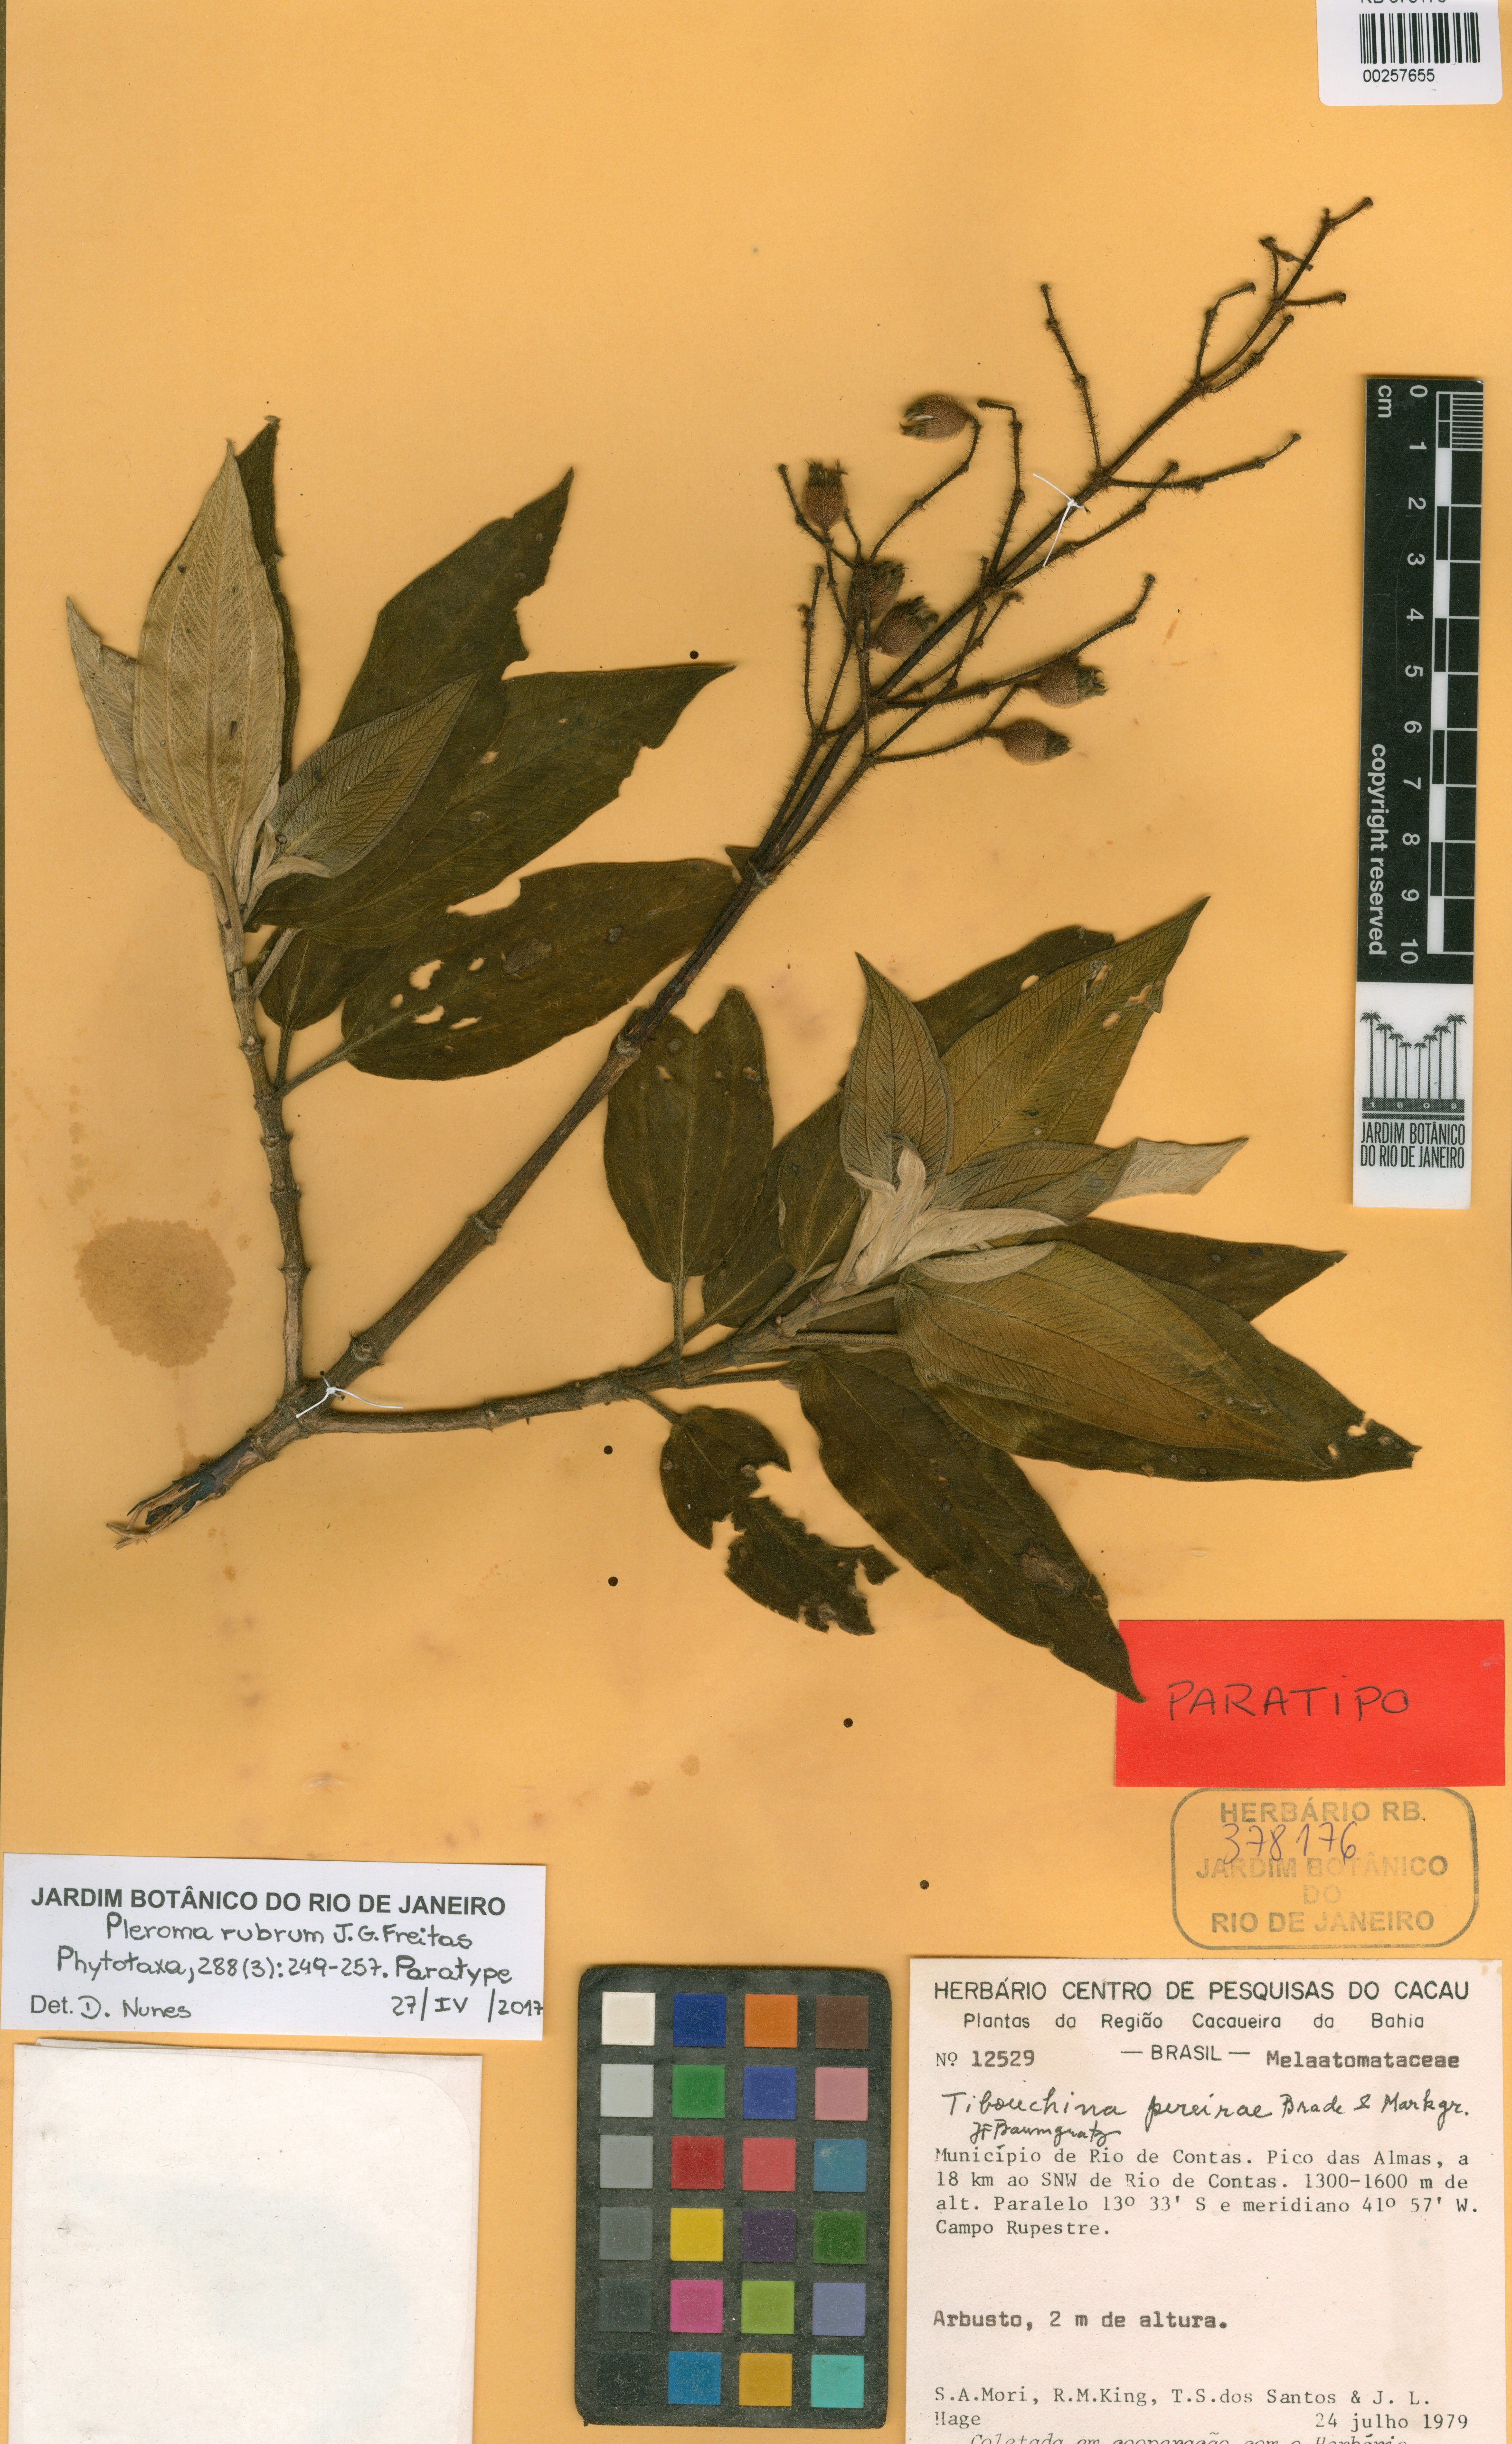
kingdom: Plantae
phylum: Tracheophyta
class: Magnoliopsida
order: Myrtales
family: Melastomataceae
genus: Pleroma
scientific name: Pleroma rubrum
